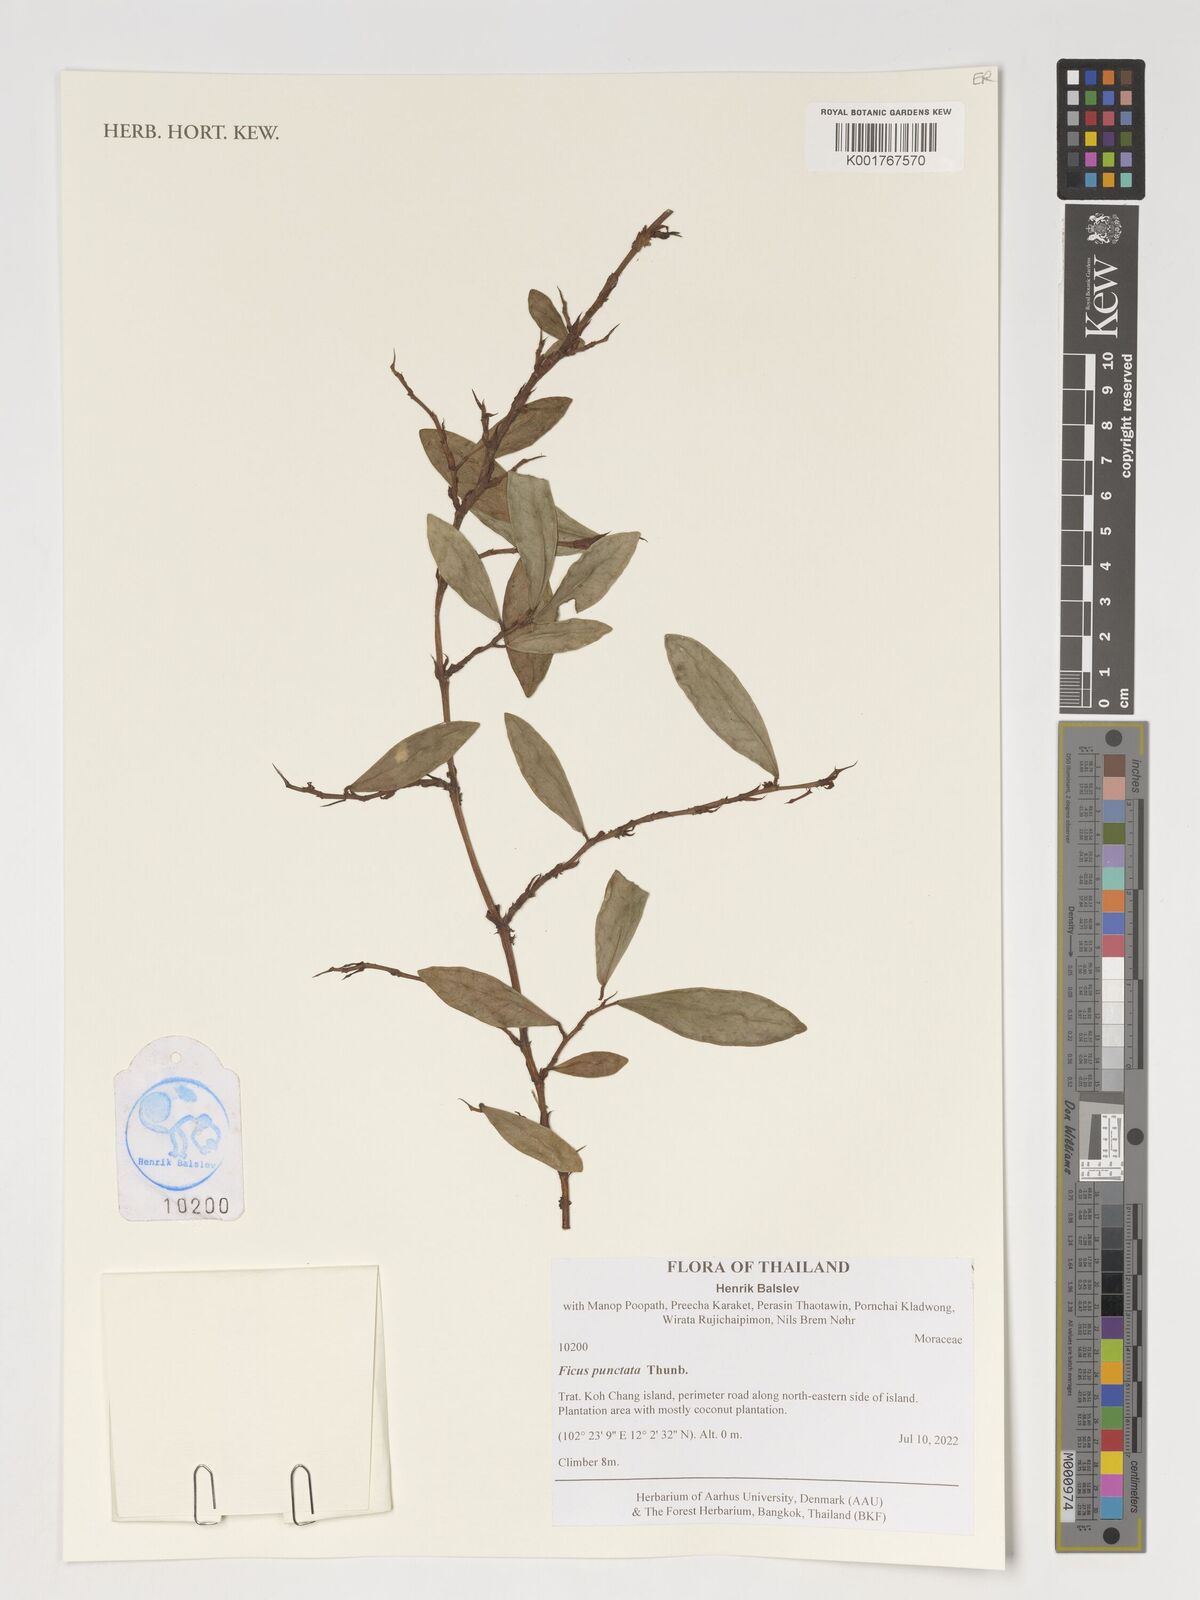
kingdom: Plantae
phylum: Tracheophyta
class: Magnoliopsida
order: Rosales
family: Moraceae
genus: Ficus
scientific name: Ficus punctata
